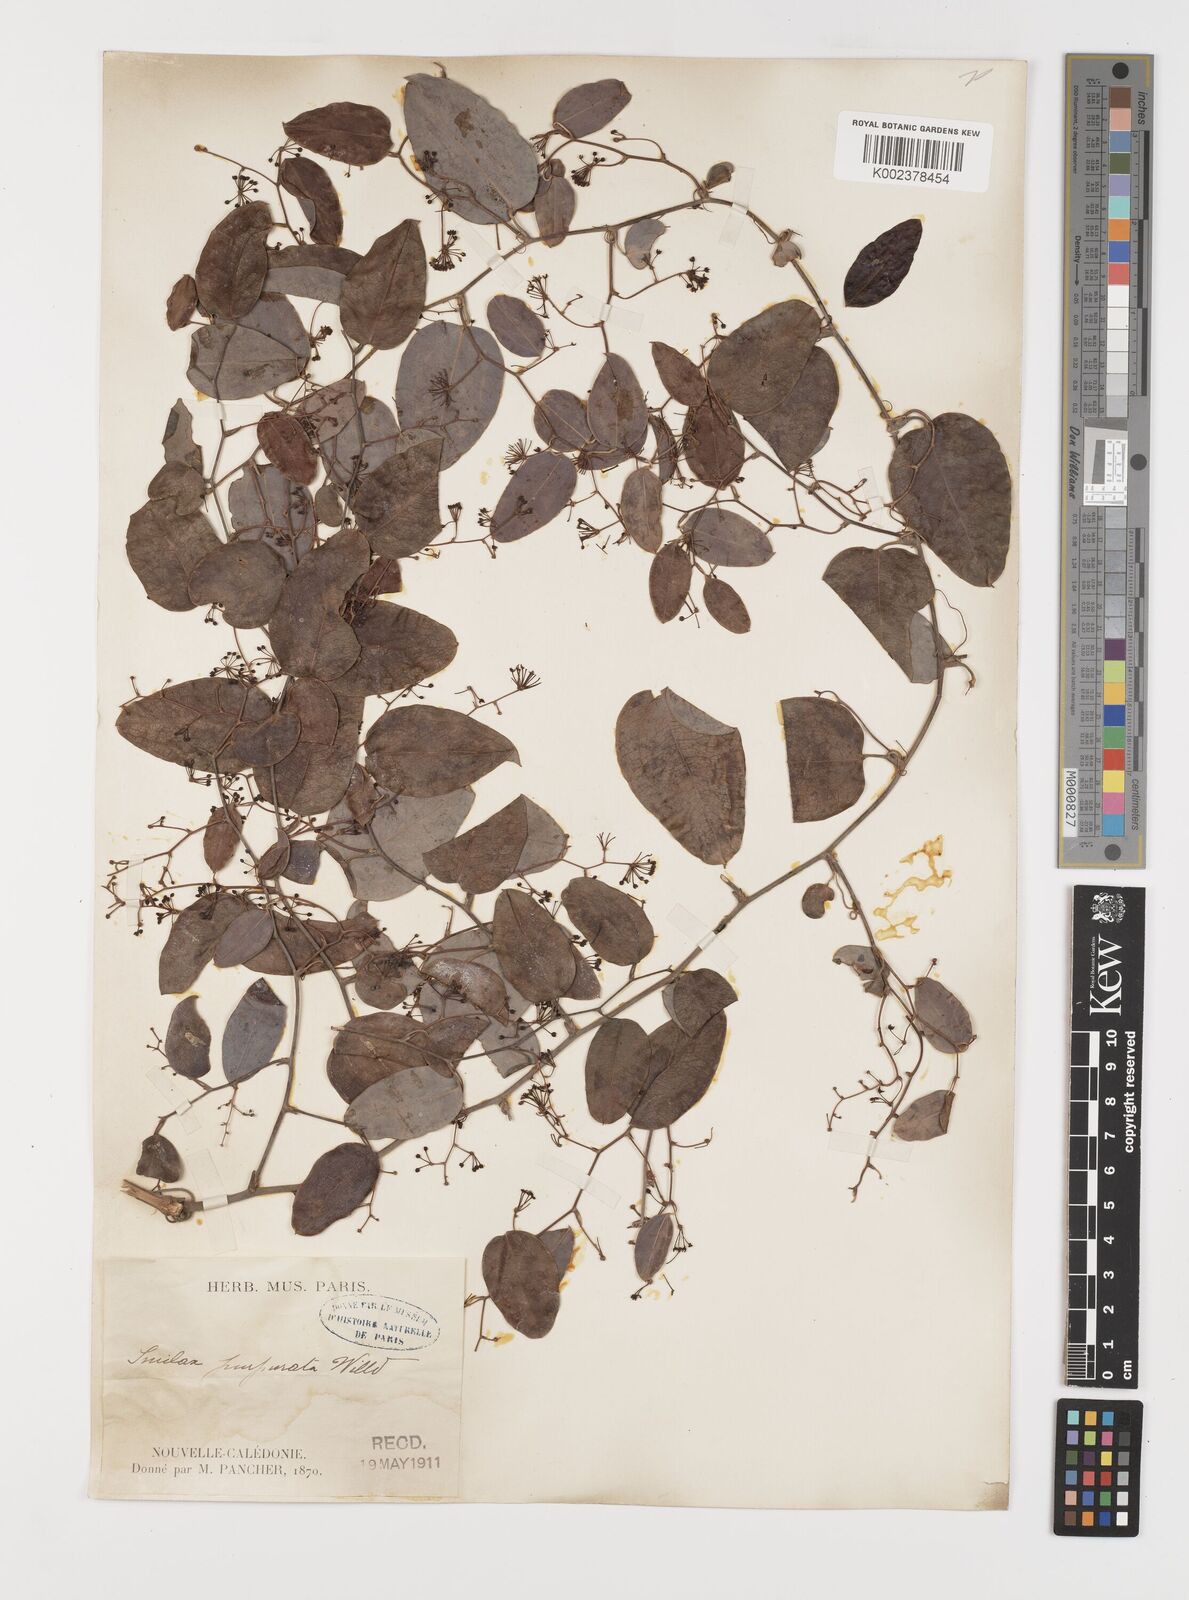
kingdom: Plantae
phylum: Tracheophyta
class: Liliopsida
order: Liliales
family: Smilacaceae
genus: Smilax
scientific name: Smilax purpurata
